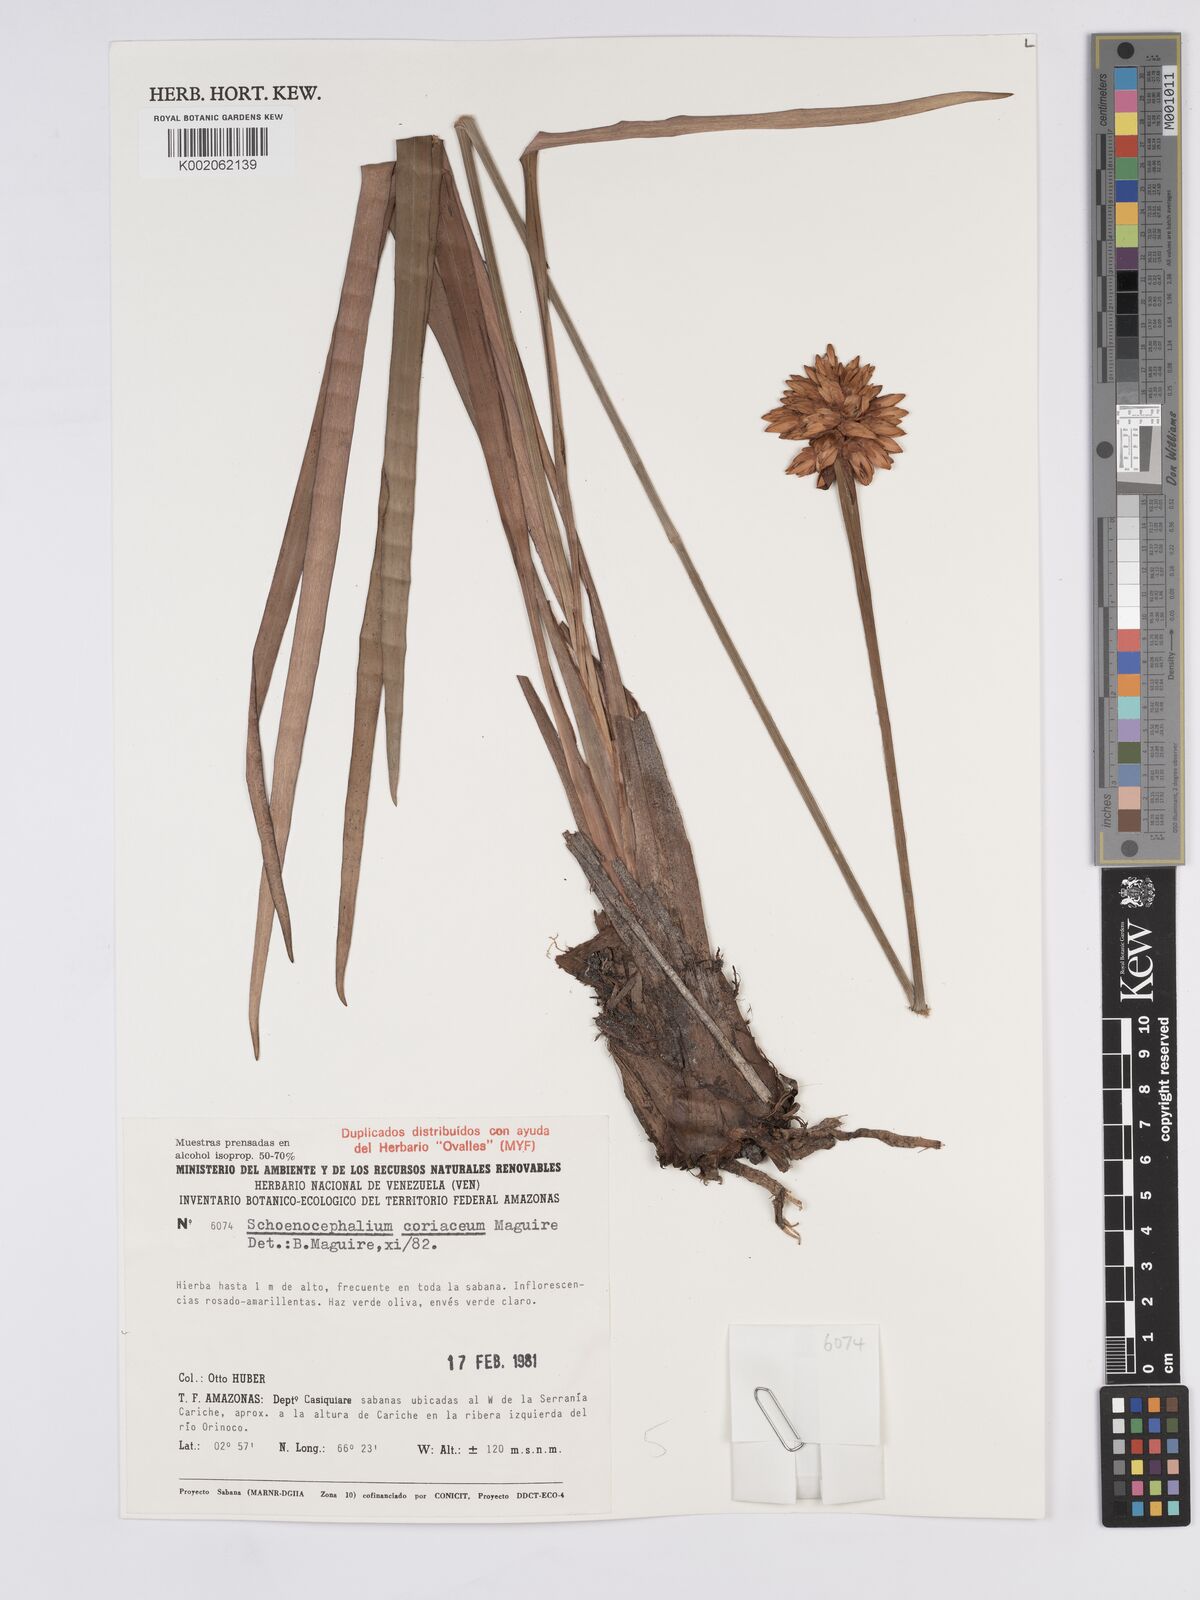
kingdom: Plantae
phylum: Tracheophyta
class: Liliopsida
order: Poales
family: Rapateaceae
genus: Schoenocephalium
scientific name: Schoenocephalium cucullatum
